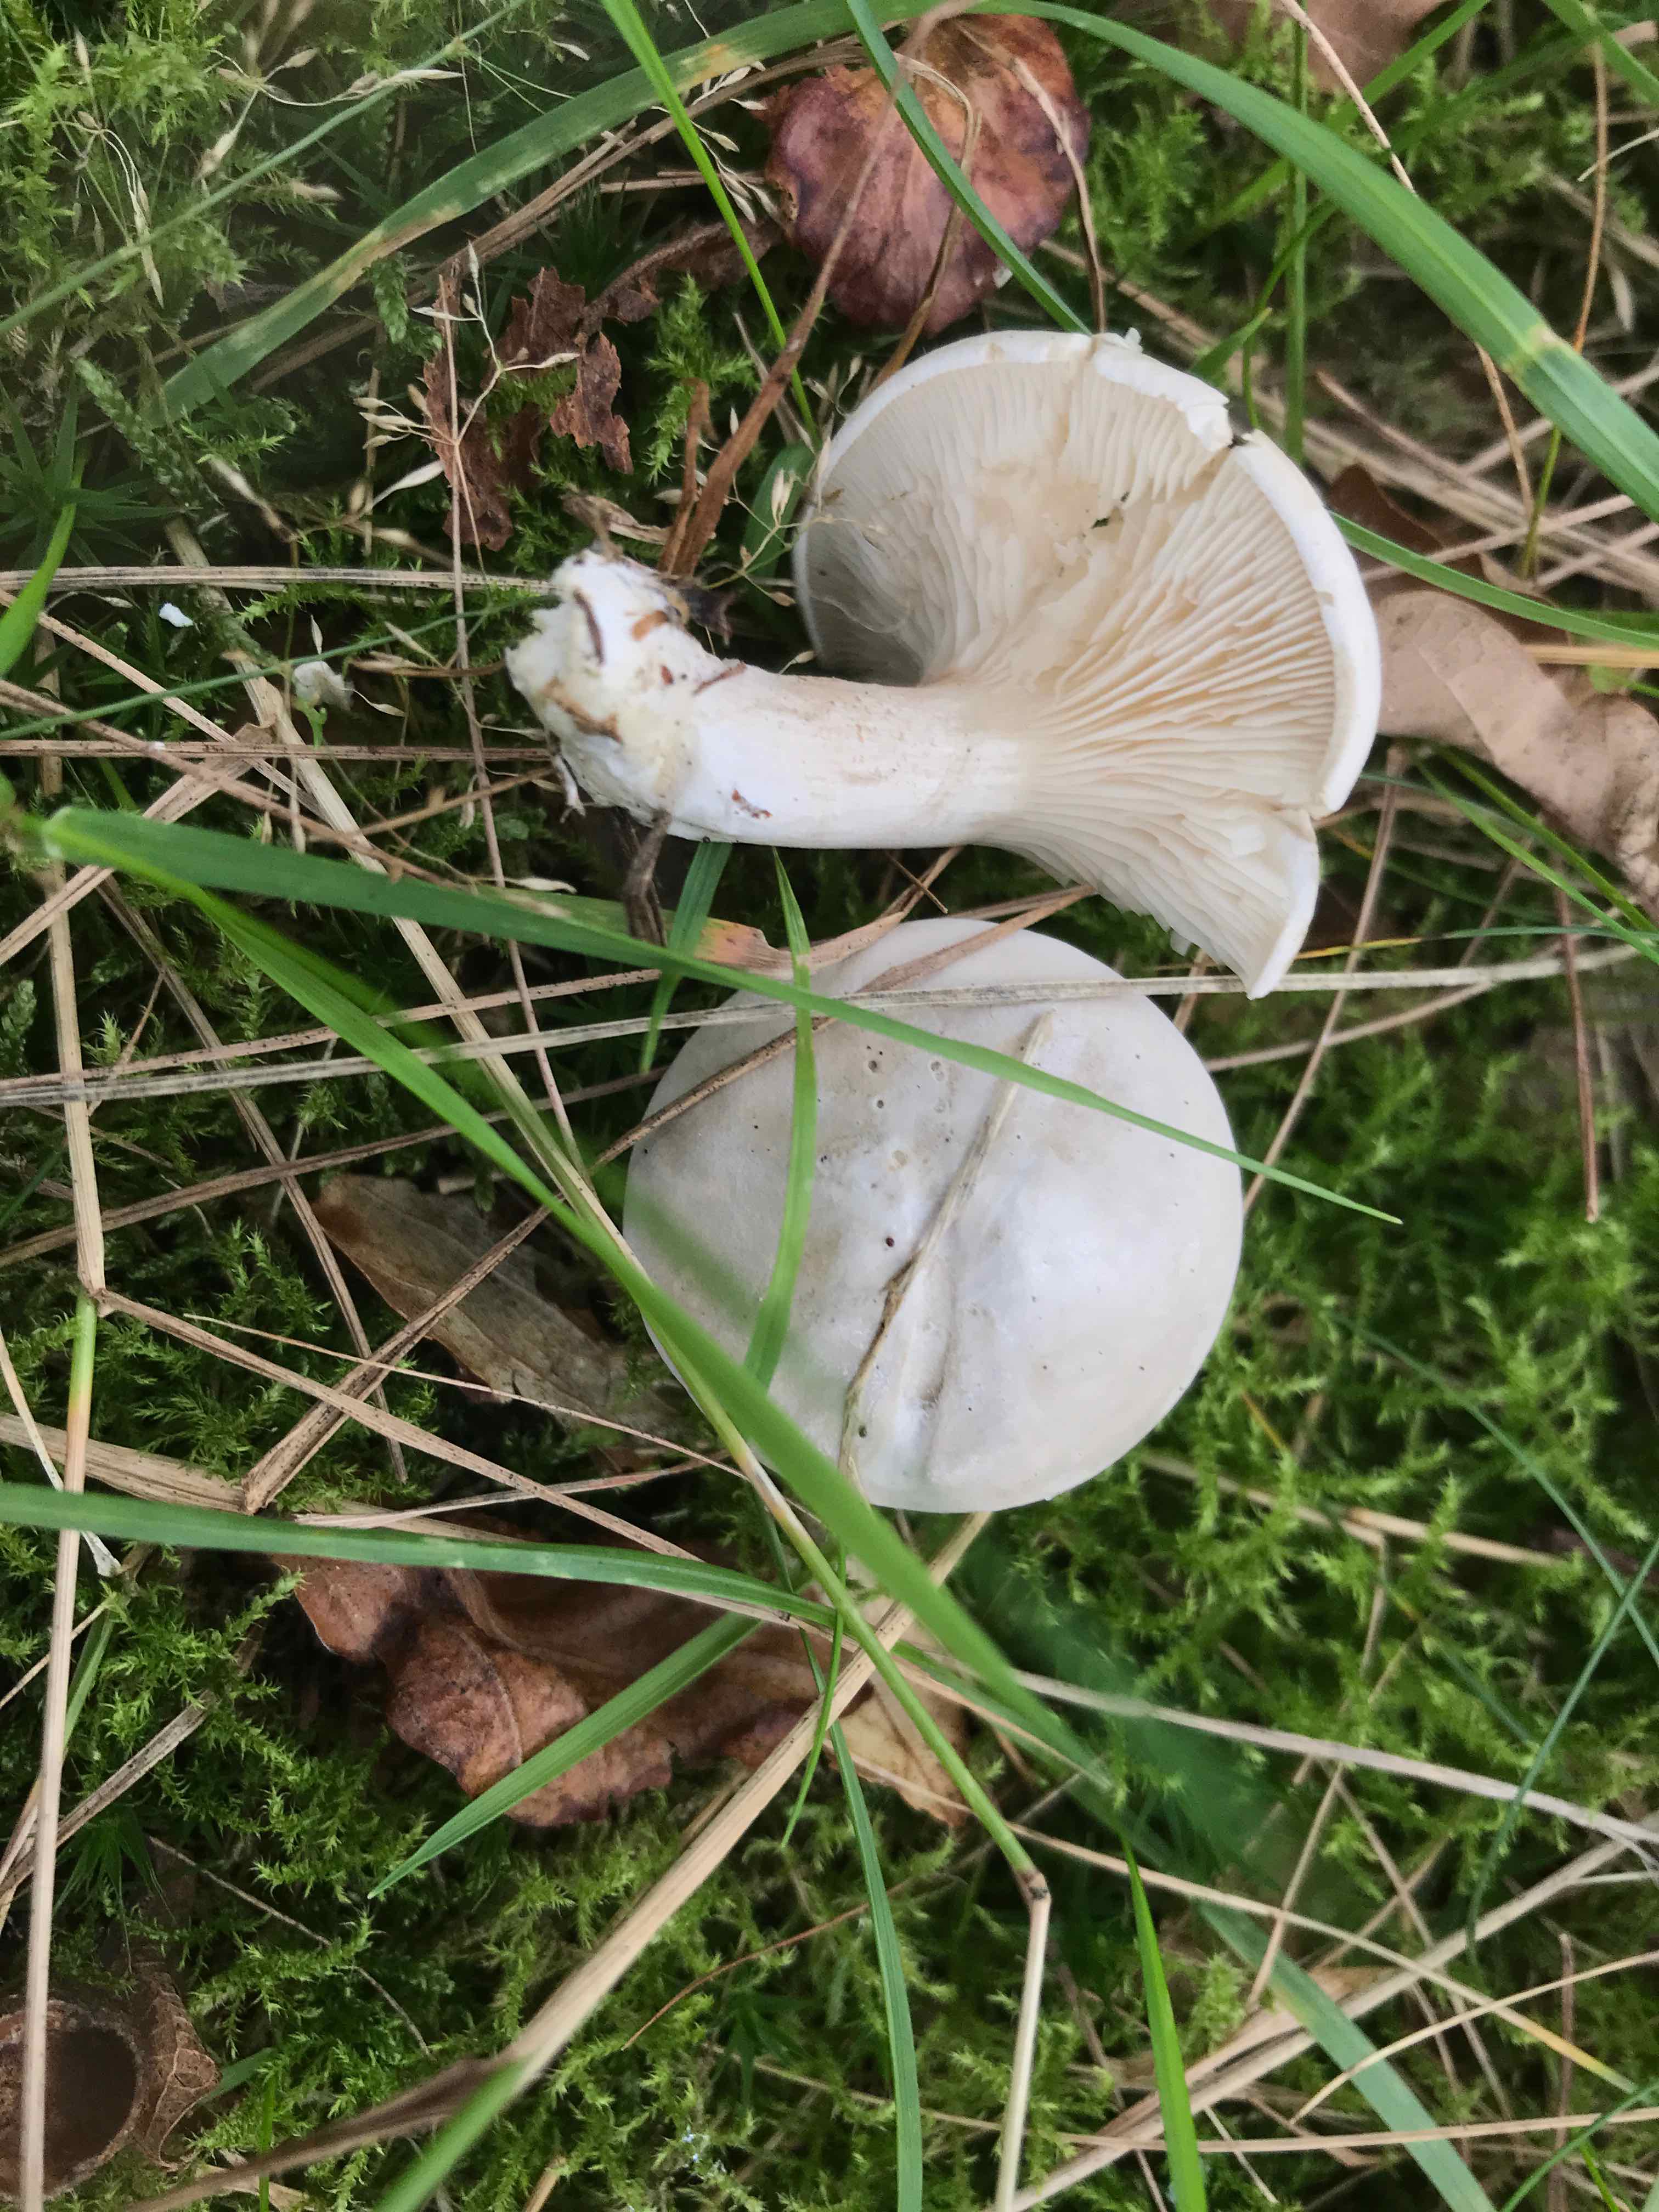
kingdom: Fungi
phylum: Basidiomycota
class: Agaricomycetes
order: Agaricales
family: Entolomataceae
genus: Clitopilus
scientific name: Clitopilus prunulus
